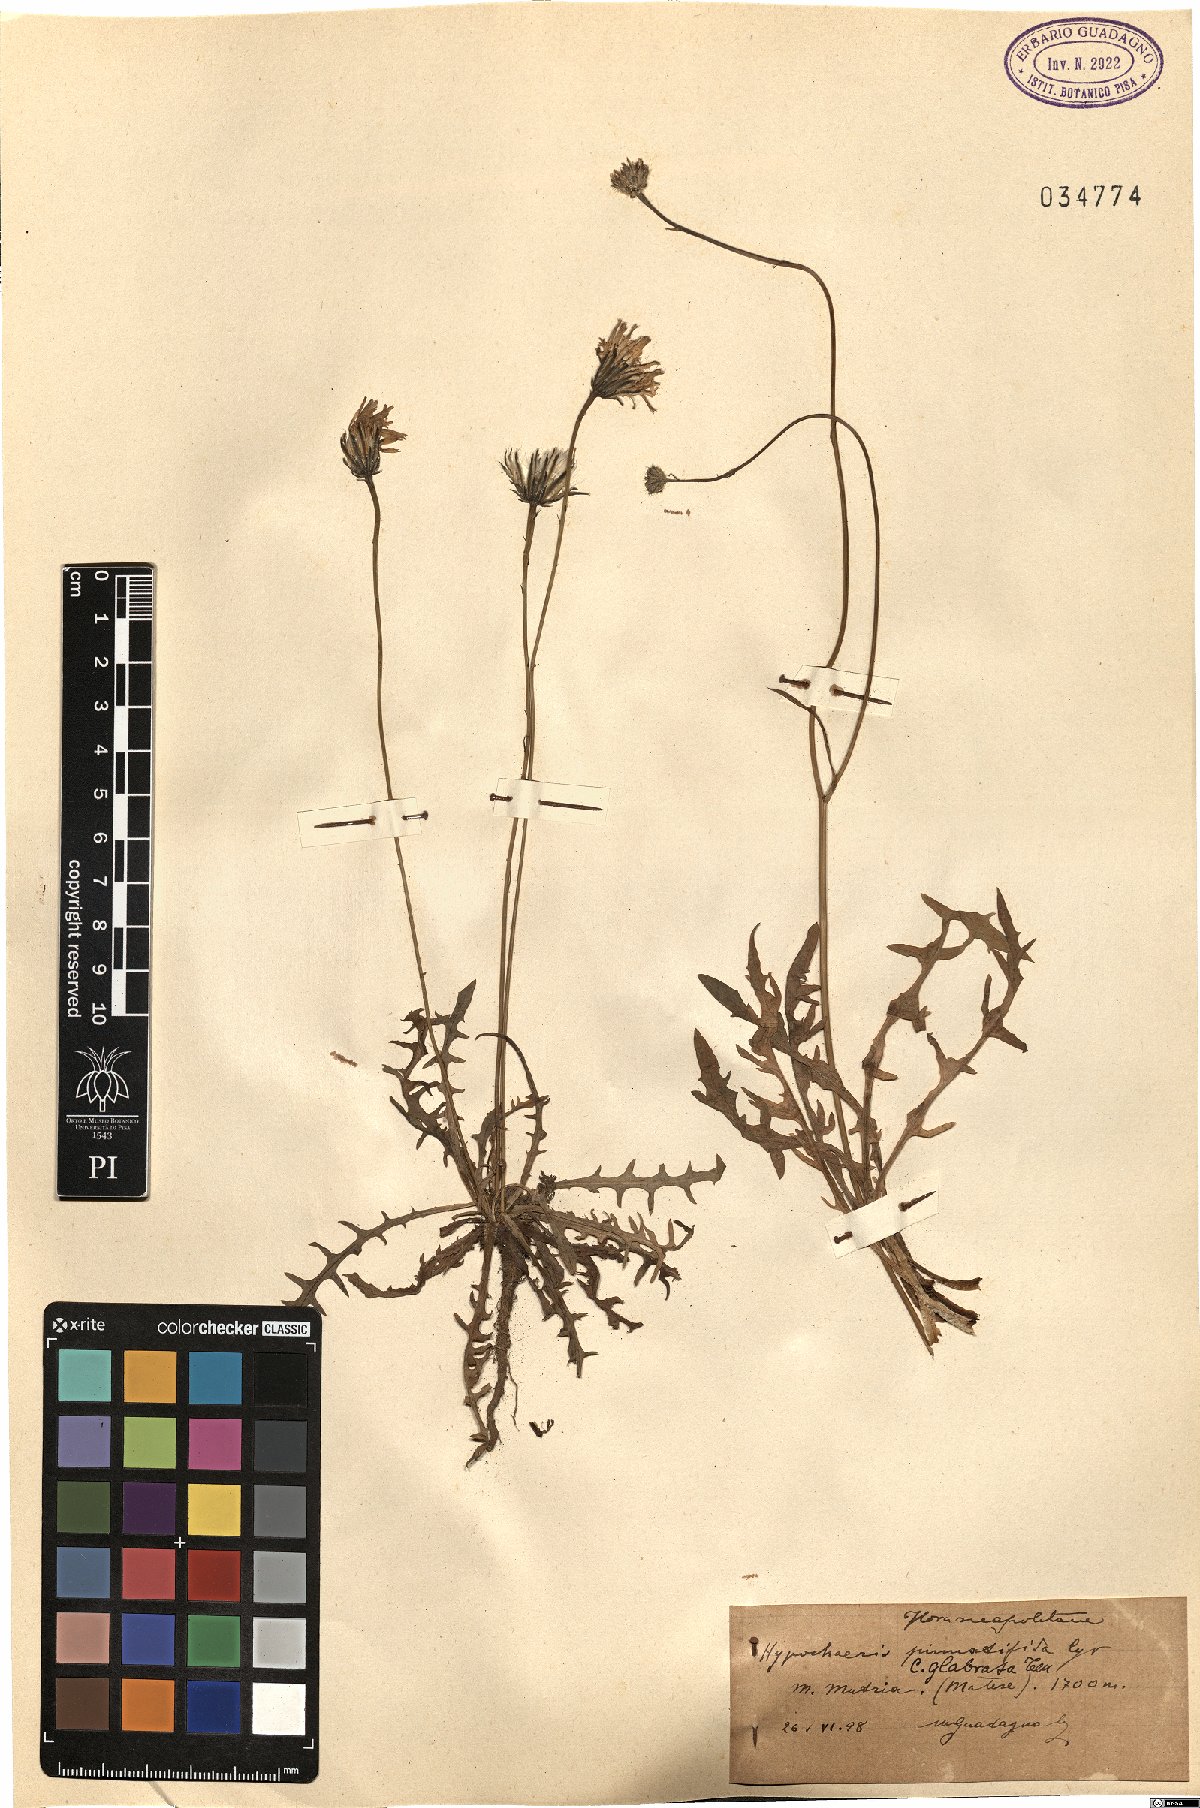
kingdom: Plantae
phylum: Tracheophyta
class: Magnoliopsida
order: Asterales
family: Asteraceae
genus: Hypochaeris
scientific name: Hypochaeris cretensis
